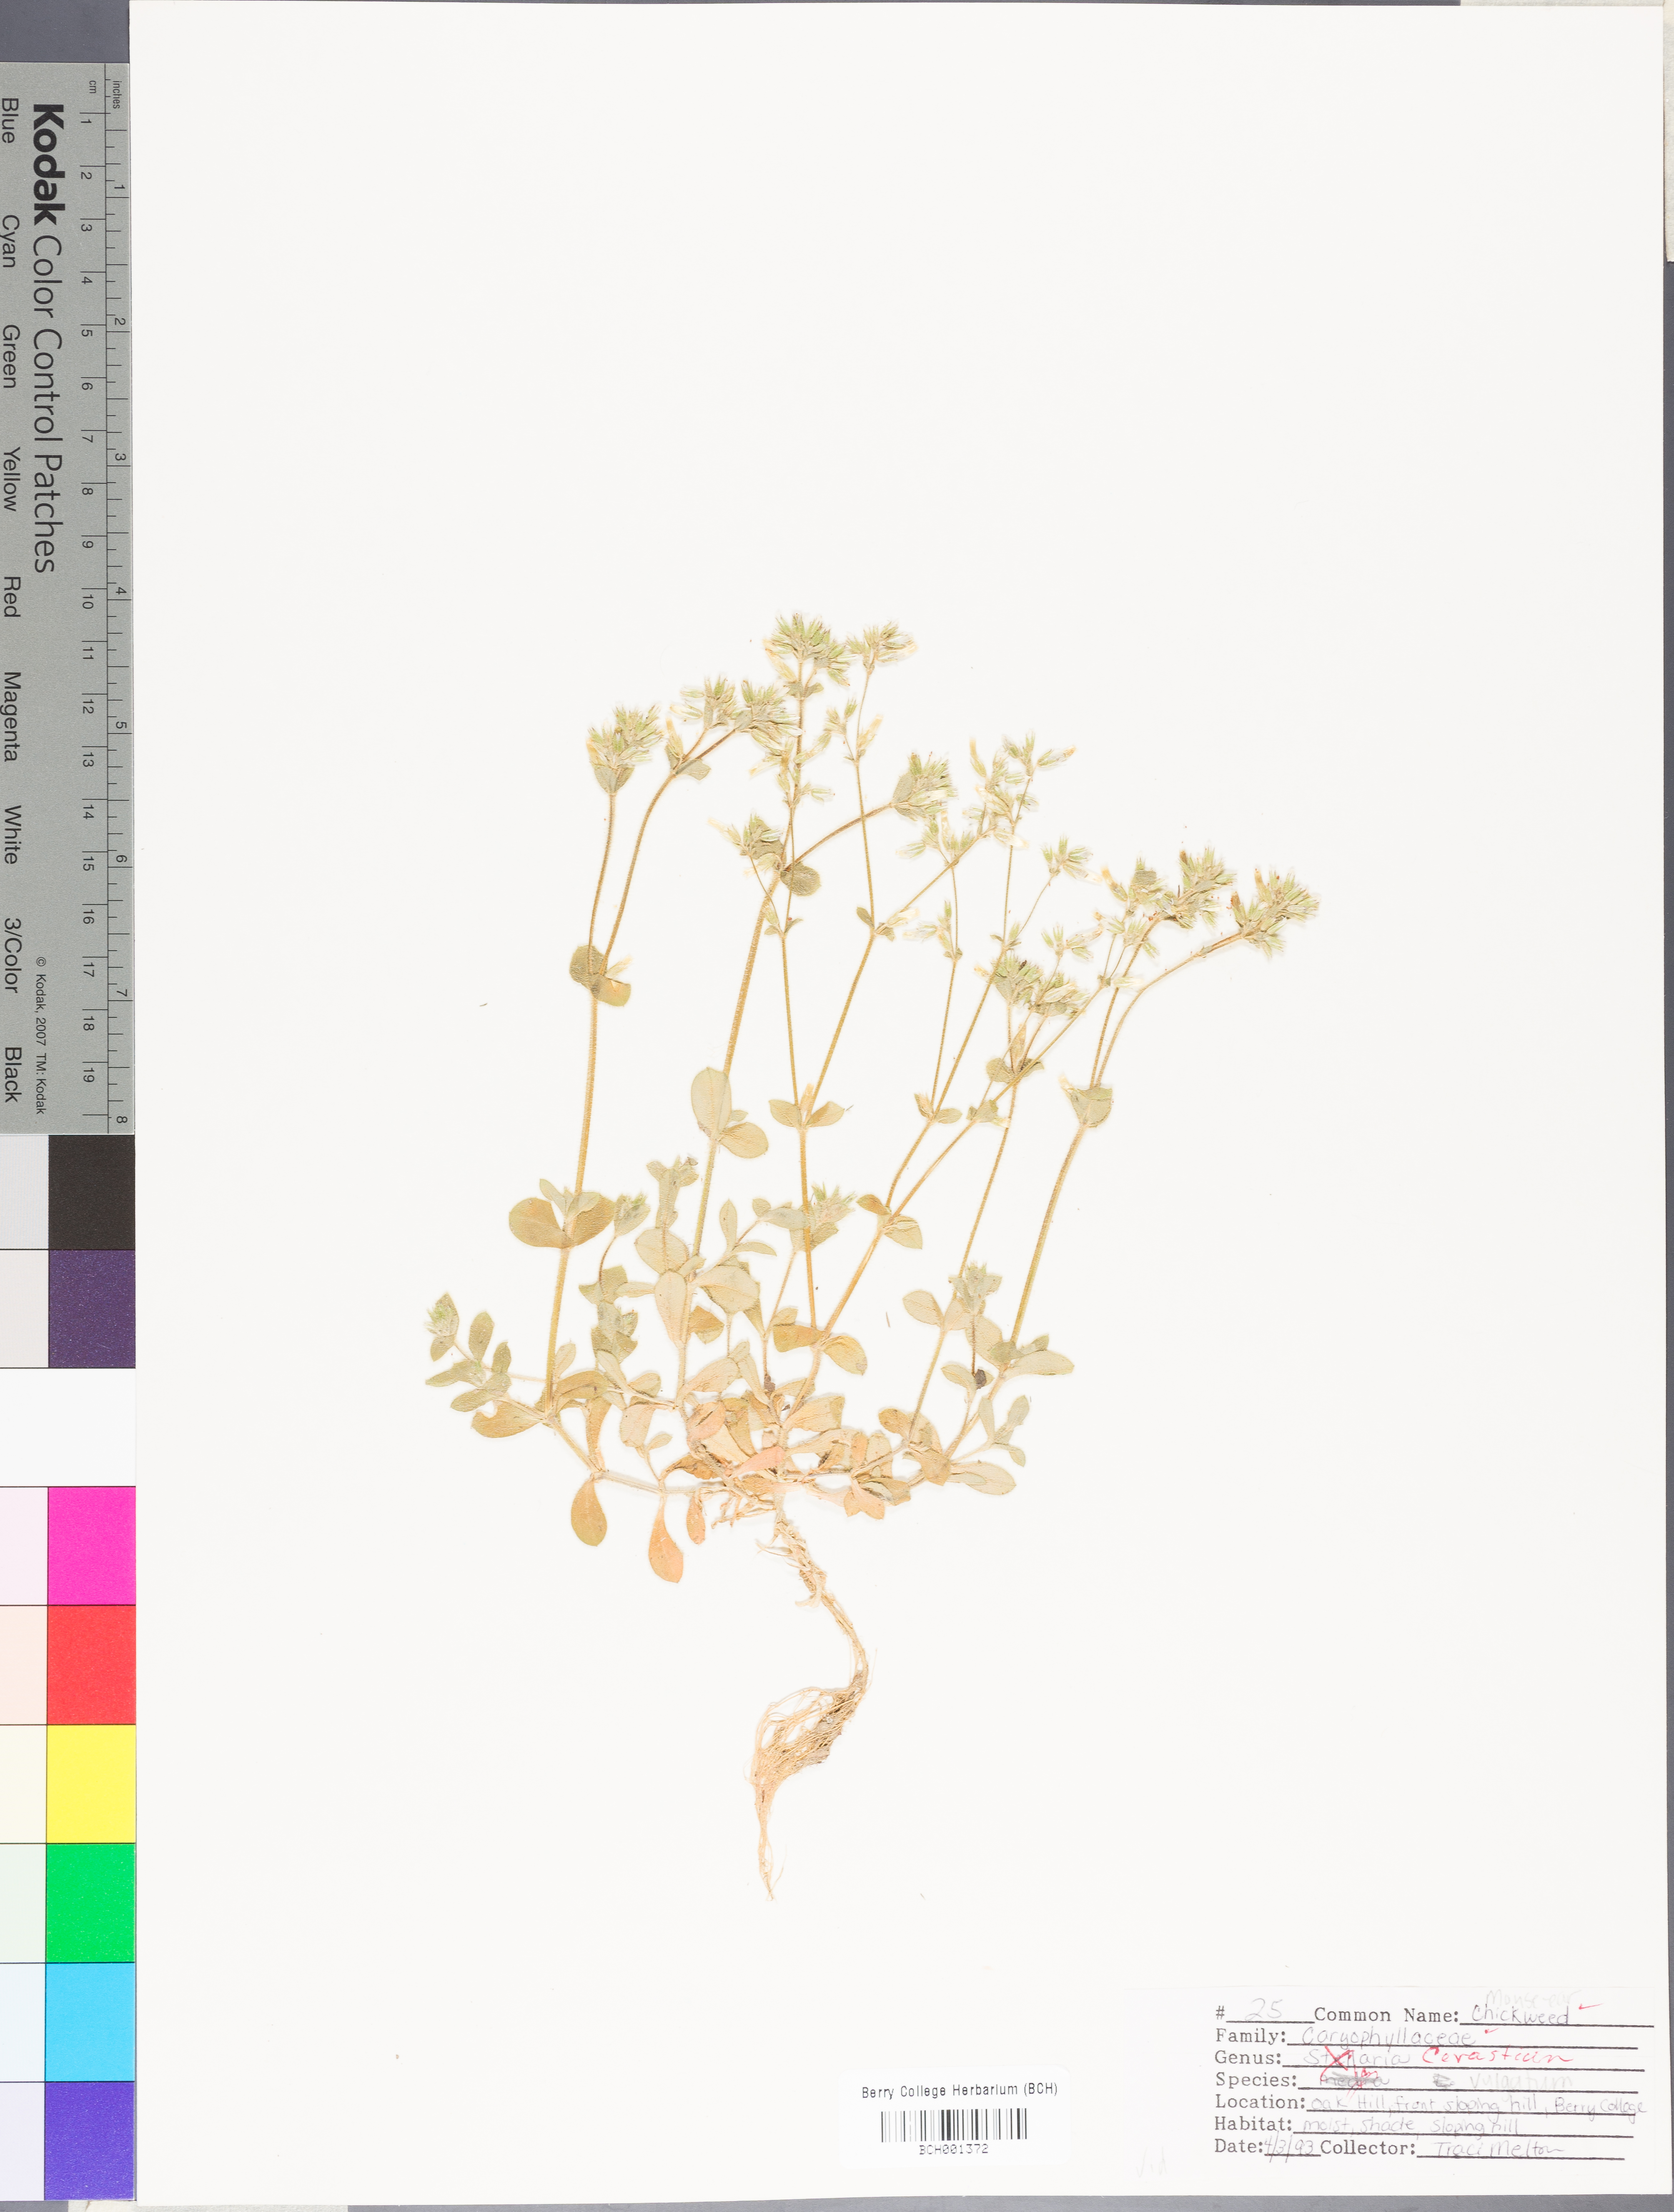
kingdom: Plantae
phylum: Tracheophyta
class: Magnoliopsida
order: Caryophyllales
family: Caryophyllaceae
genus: Cerastium
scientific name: Cerastium holosteoides
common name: Big chickweed
